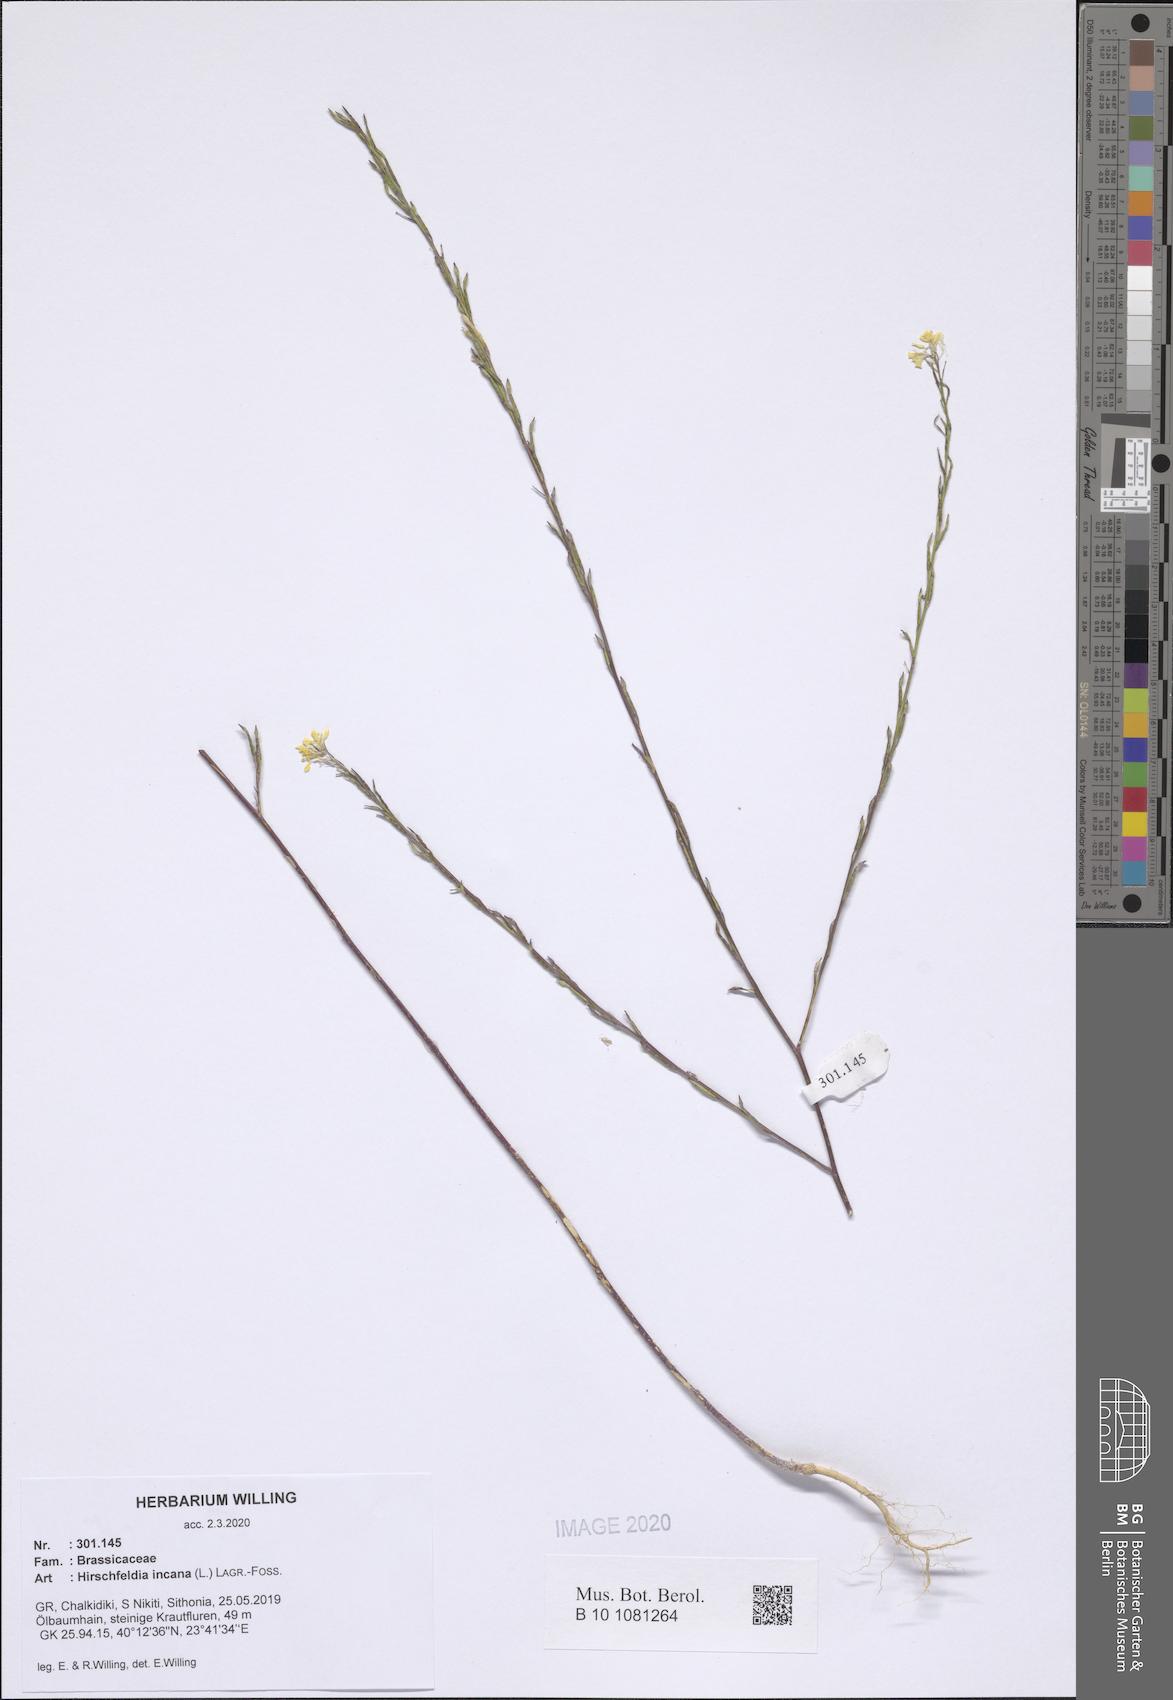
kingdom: Plantae
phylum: Tracheophyta
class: Magnoliopsida
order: Brassicales
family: Brassicaceae
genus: Hirschfeldia
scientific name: Hirschfeldia incana
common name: Hoary mustard
